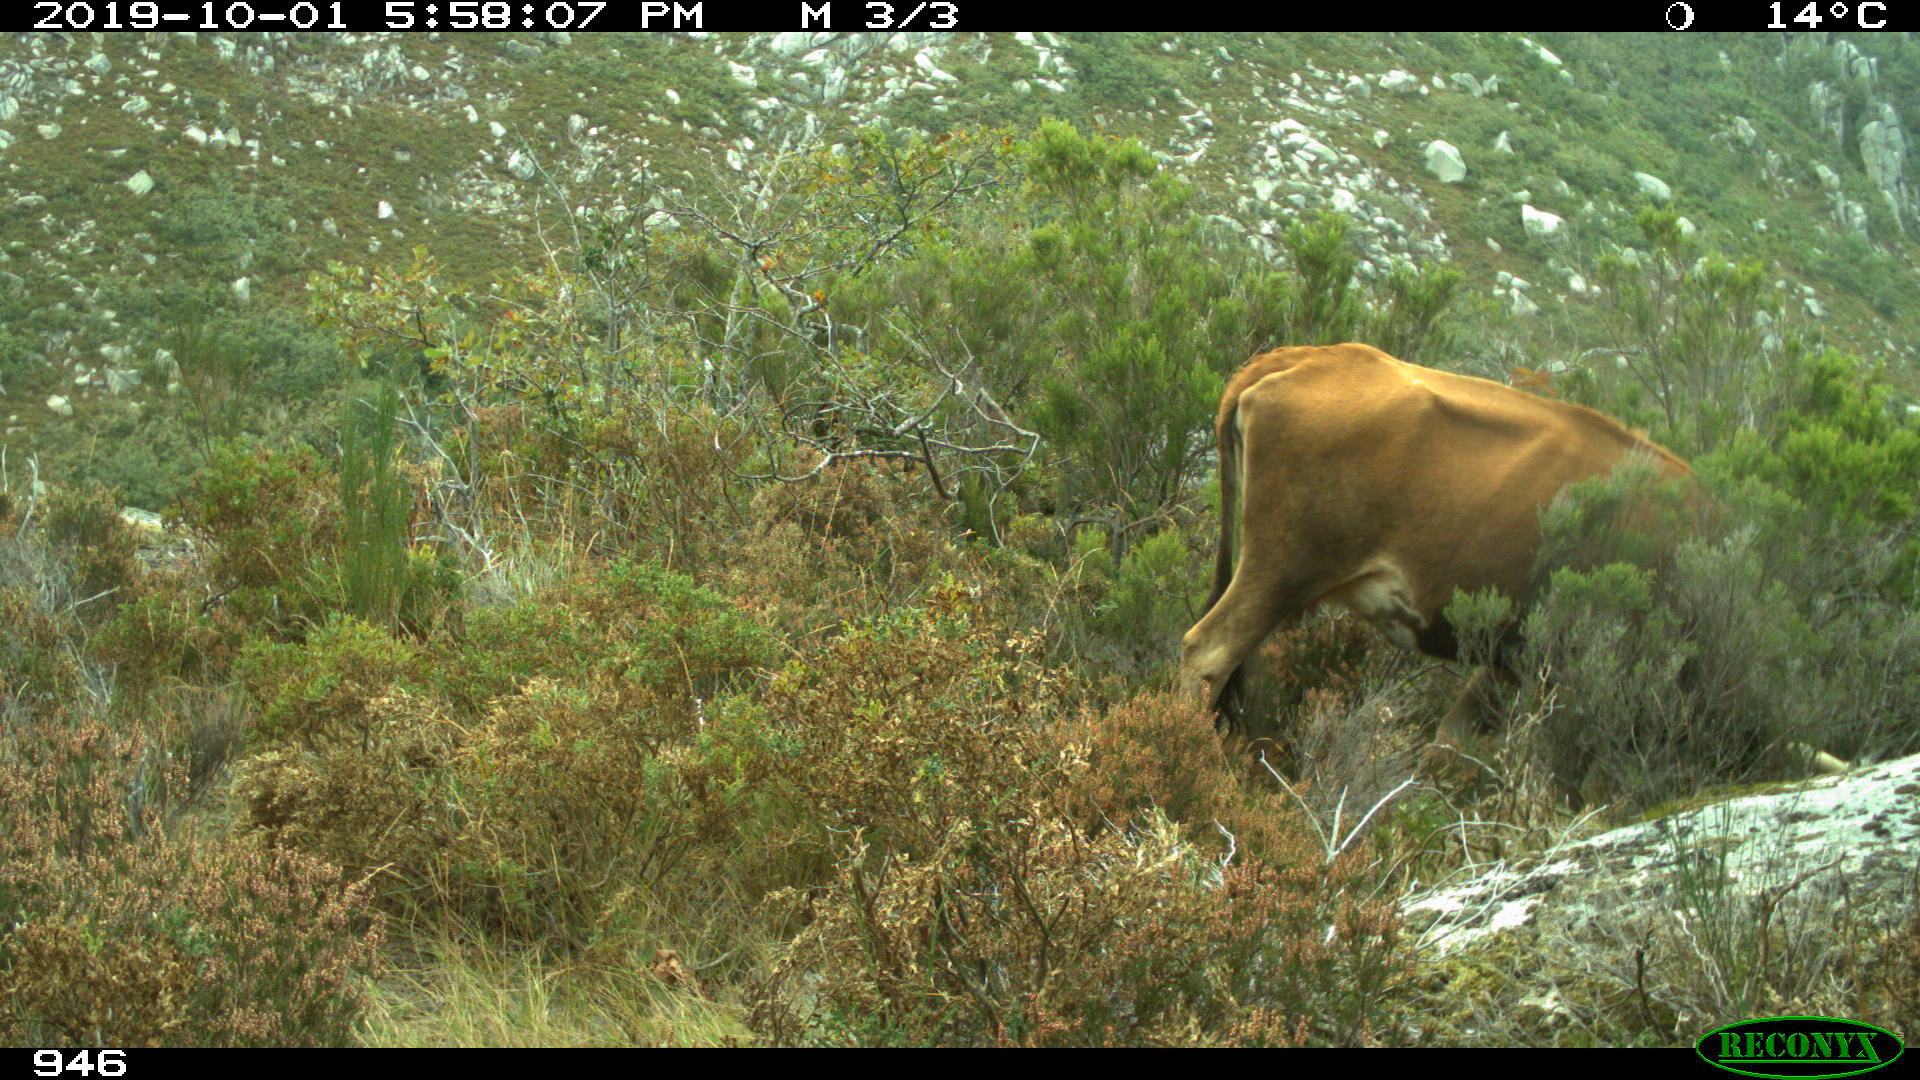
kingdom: Animalia
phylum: Chordata
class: Mammalia
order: Artiodactyla
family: Bovidae
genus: Bos
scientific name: Bos taurus
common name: Domesticated cattle
